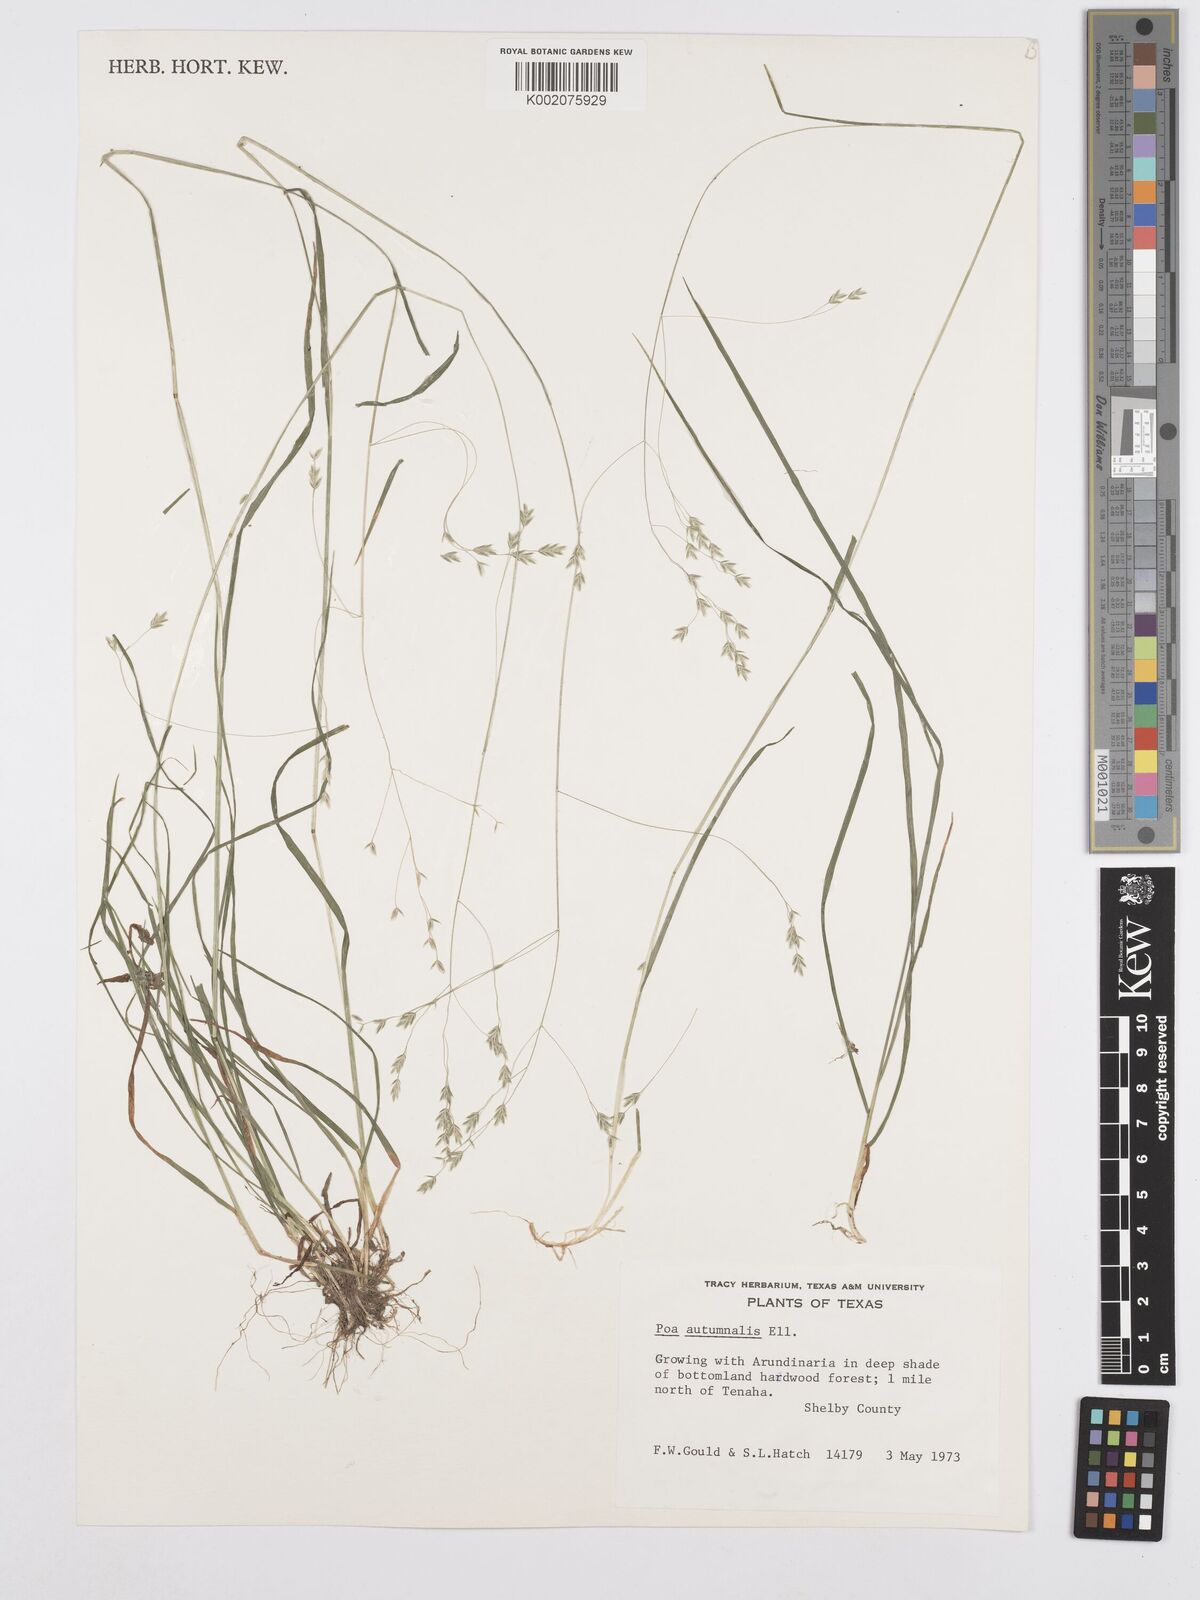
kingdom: Plantae
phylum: Tracheophyta
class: Liliopsida
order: Poales
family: Poaceae
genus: Poa
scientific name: Poa autumnalis
